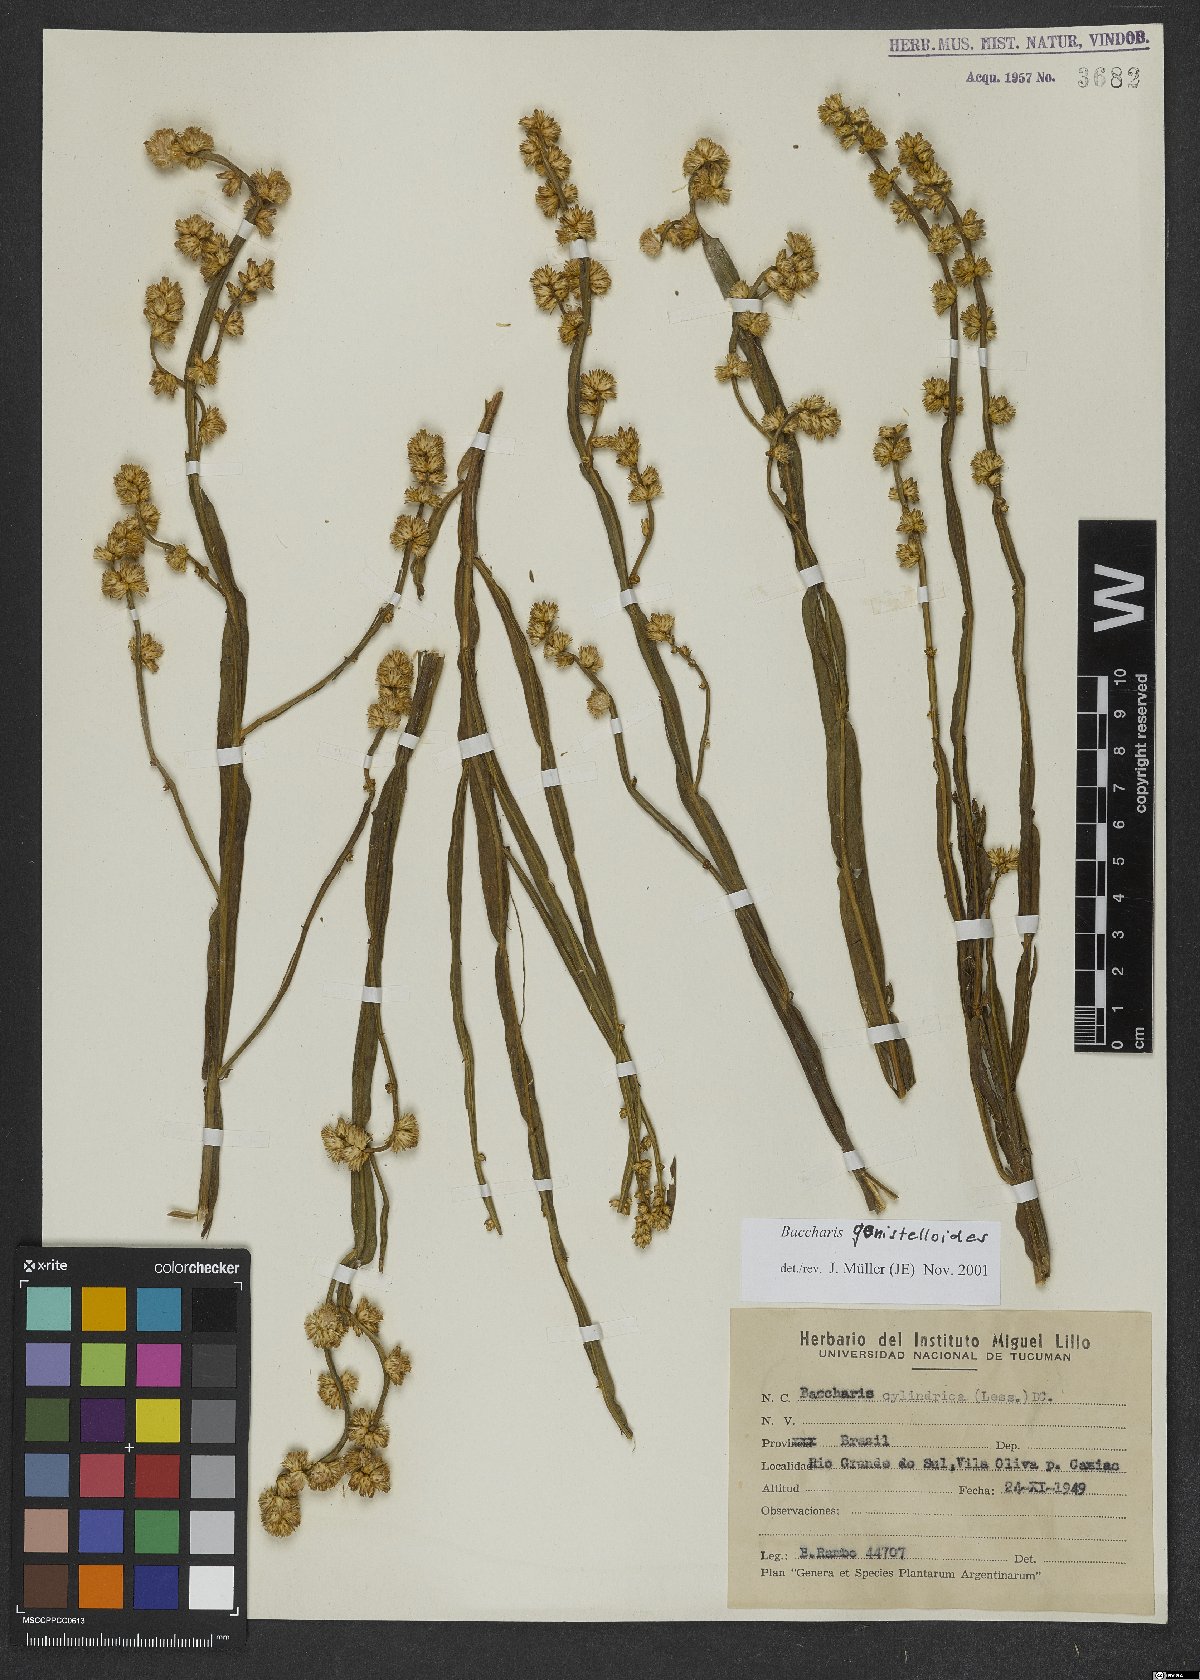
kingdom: Plantae
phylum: Tracheophyta
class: Magnoliopsida
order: Asterales
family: Asteraceae
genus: Baccharis
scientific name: Baccharis genistelloides
